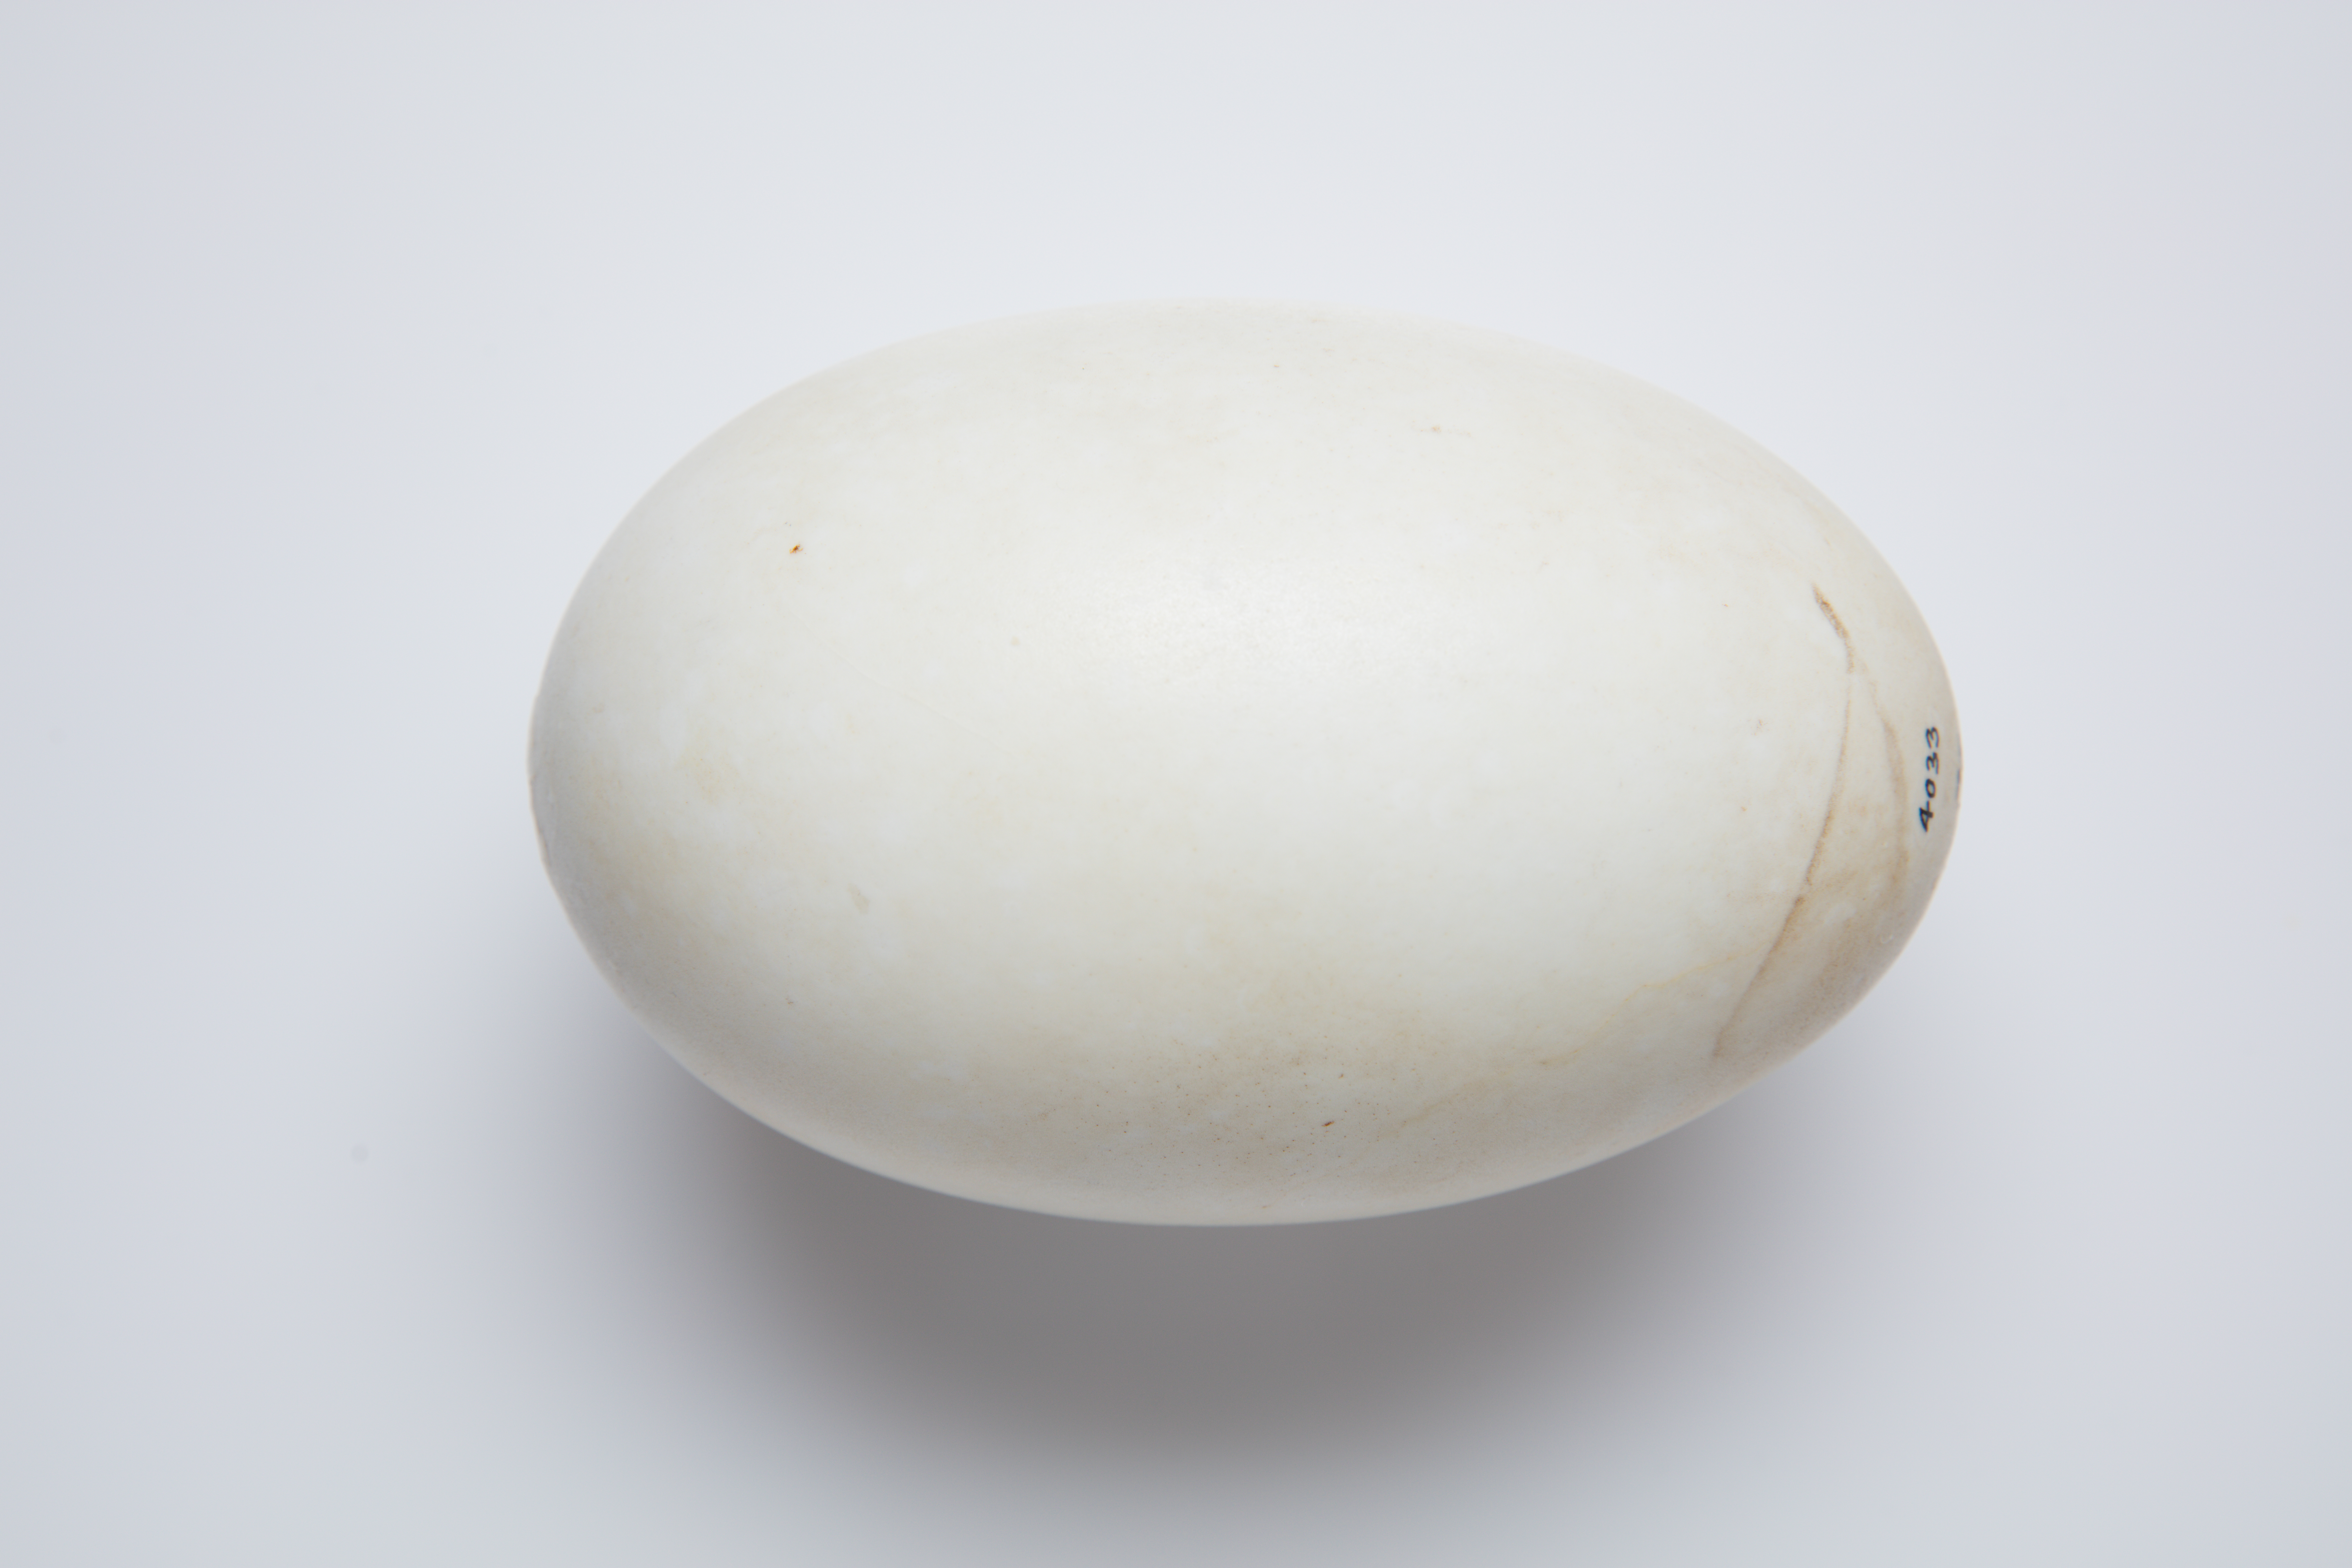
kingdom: Animalia
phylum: Chordata
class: Aves
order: Apterygiformes
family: Apterygidae
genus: Apteryx
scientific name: Apteryx mantelli
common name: North island brown kiwi
